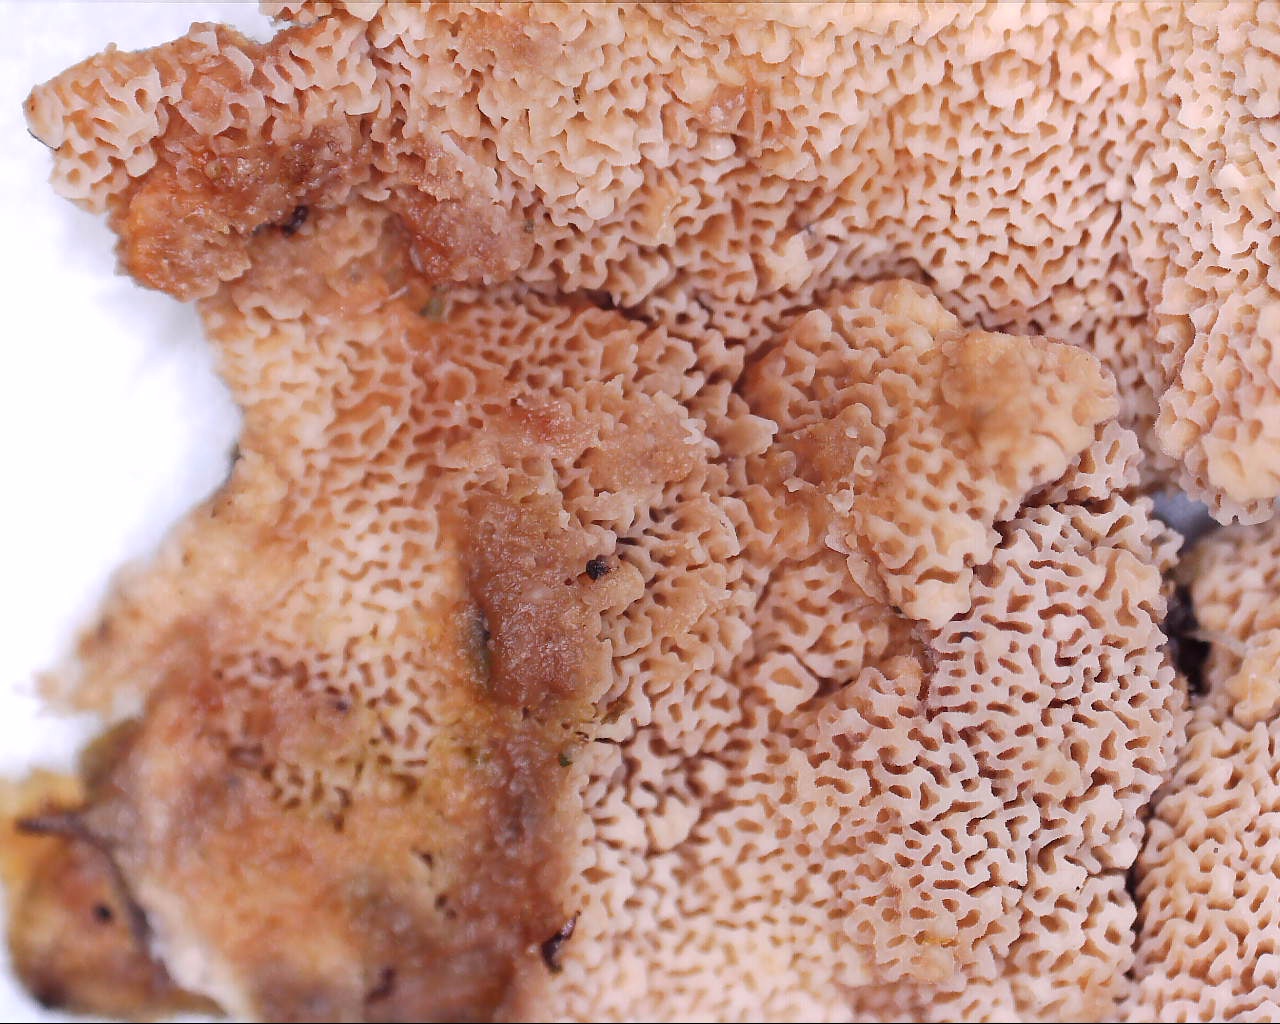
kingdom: Fungi
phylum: Basidiomycota
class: Agaricomycetes
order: Polyporales
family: Irpicaceae
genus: Meruliopsis
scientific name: Meruliopsis taxicola
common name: purpurbrun foldporesvamp
